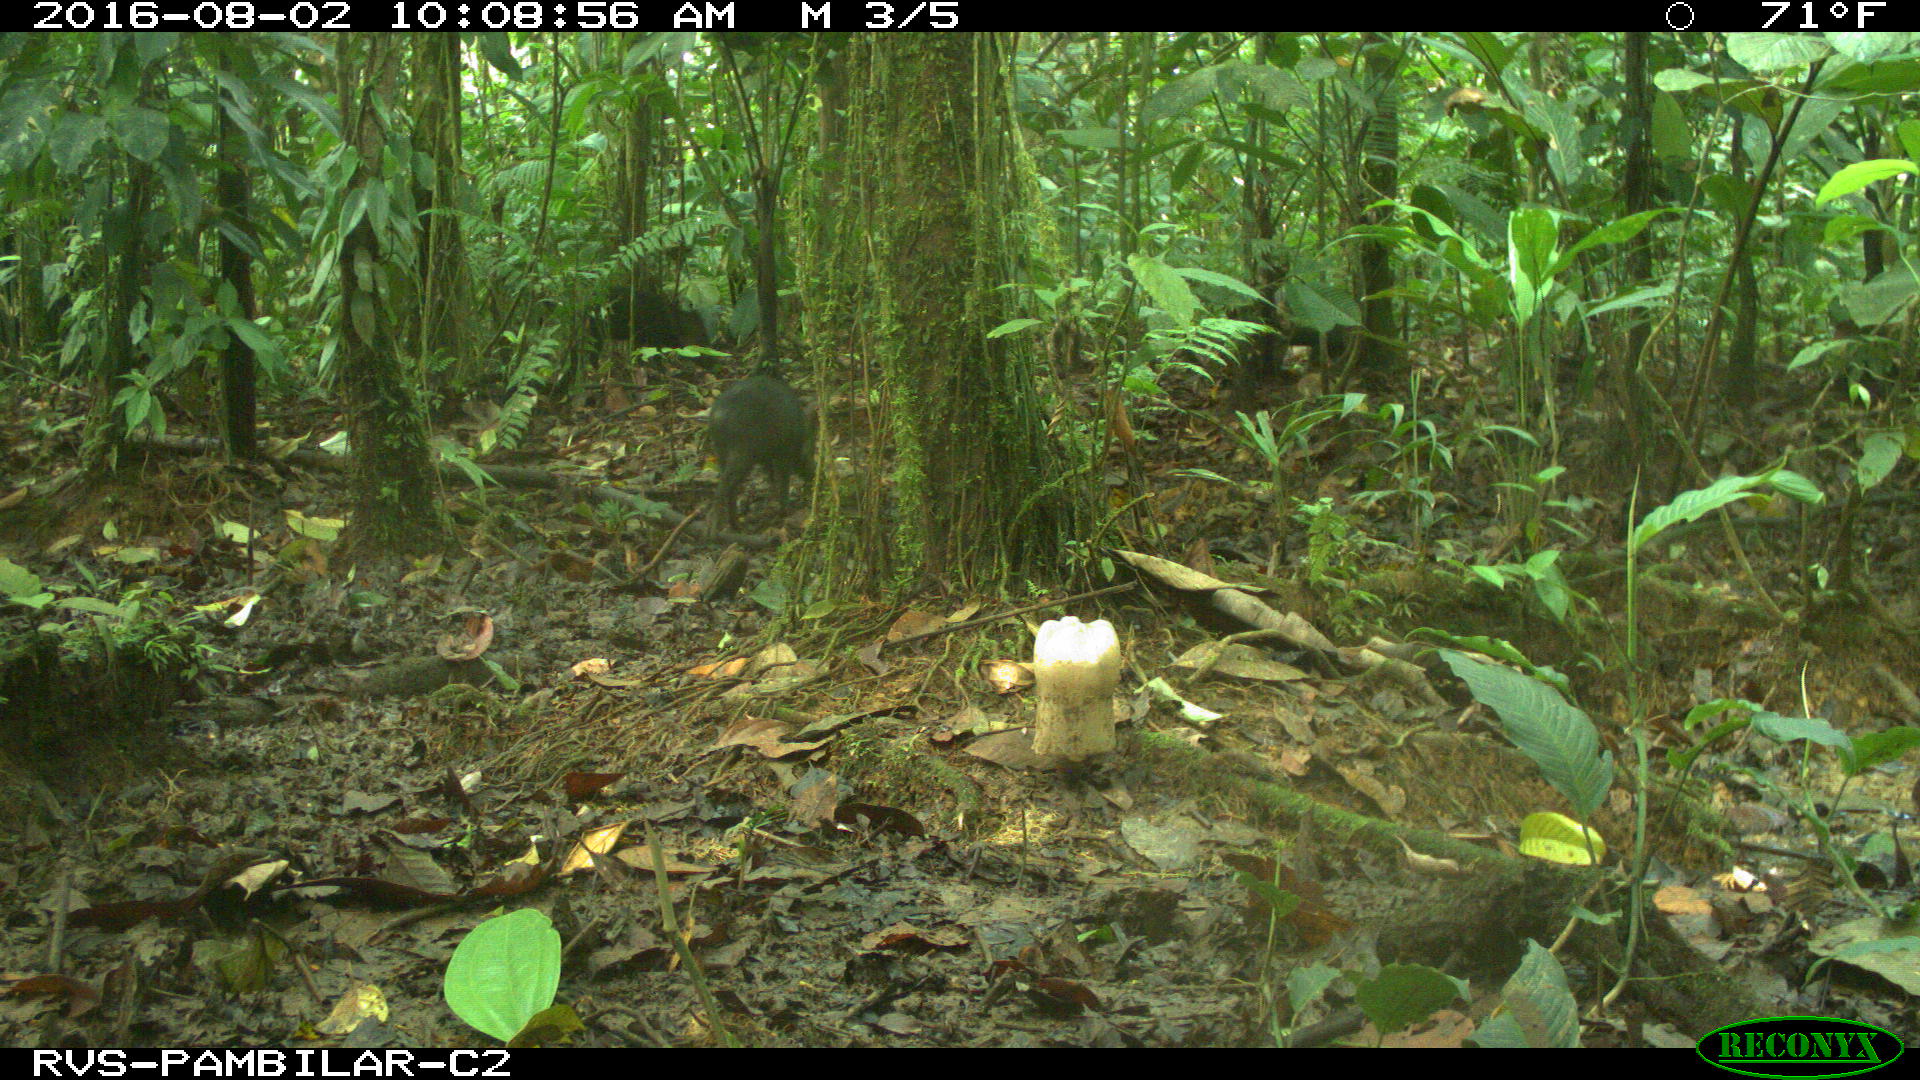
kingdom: Animalia
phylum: Chordata
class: Mammalia
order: Artiodactyla
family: Tayassuidae
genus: Pecari
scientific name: Pecari tajacu
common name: Collared peccary
